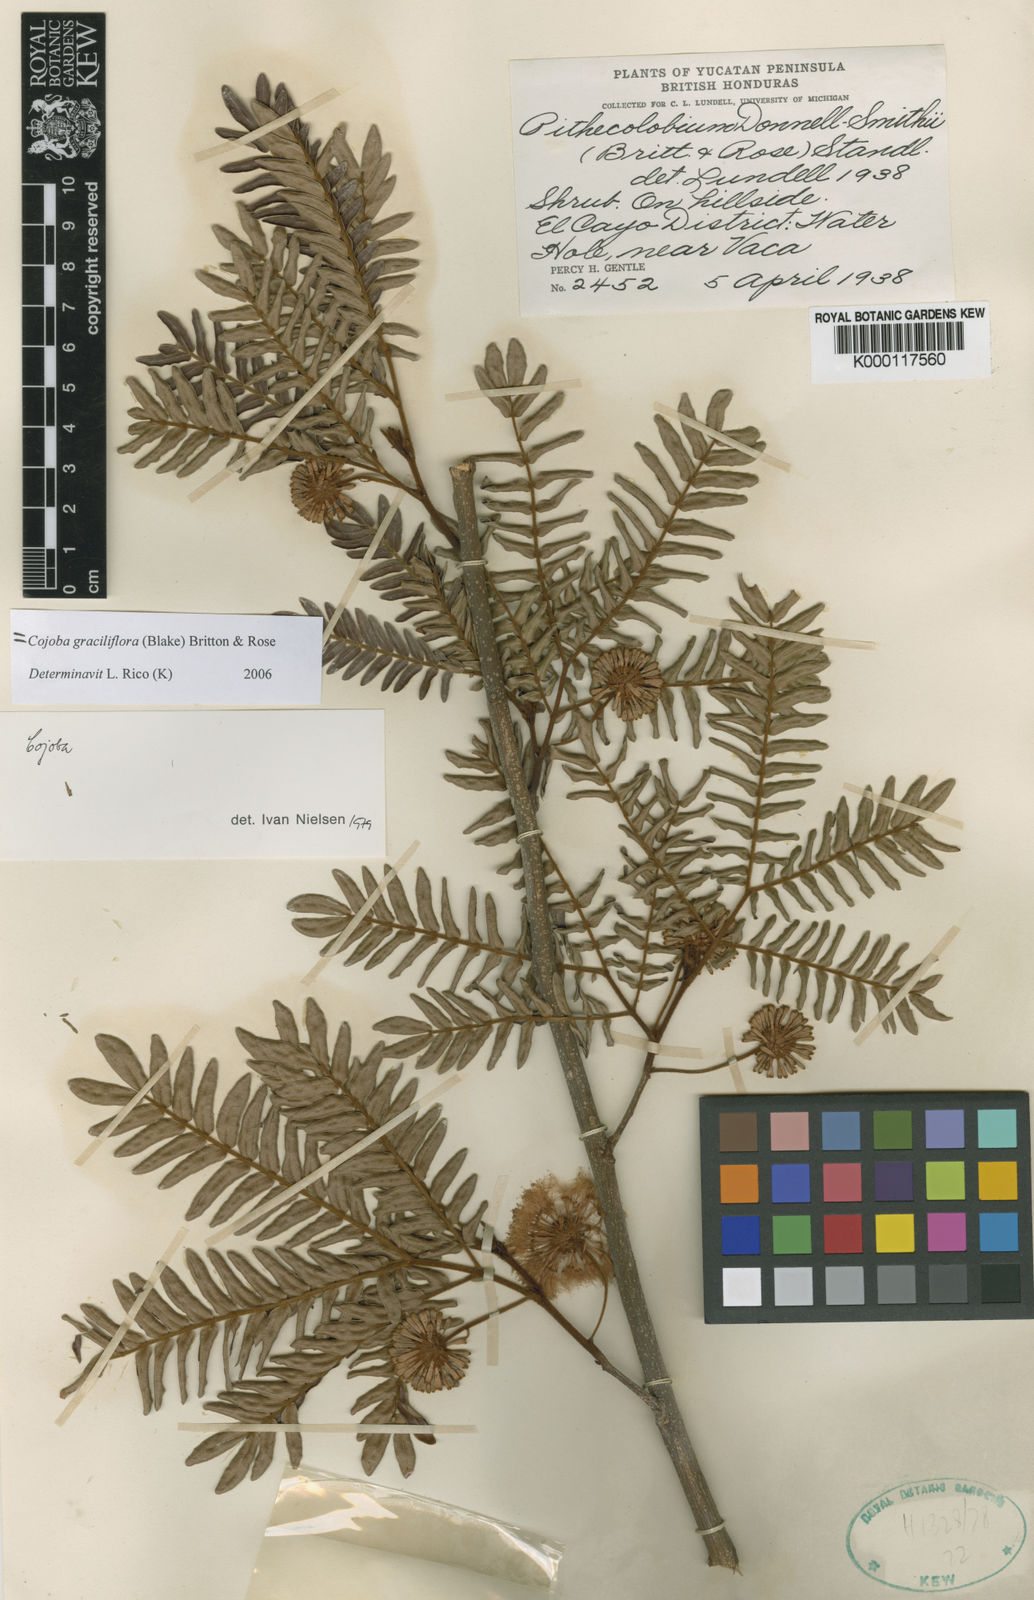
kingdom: Plantae
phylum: Tracheophyta
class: Magnoliopsida
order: Fabales
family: Fabaceae
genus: Cojoba
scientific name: Cojoba graciliflora
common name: Guadeloupe blackbead
